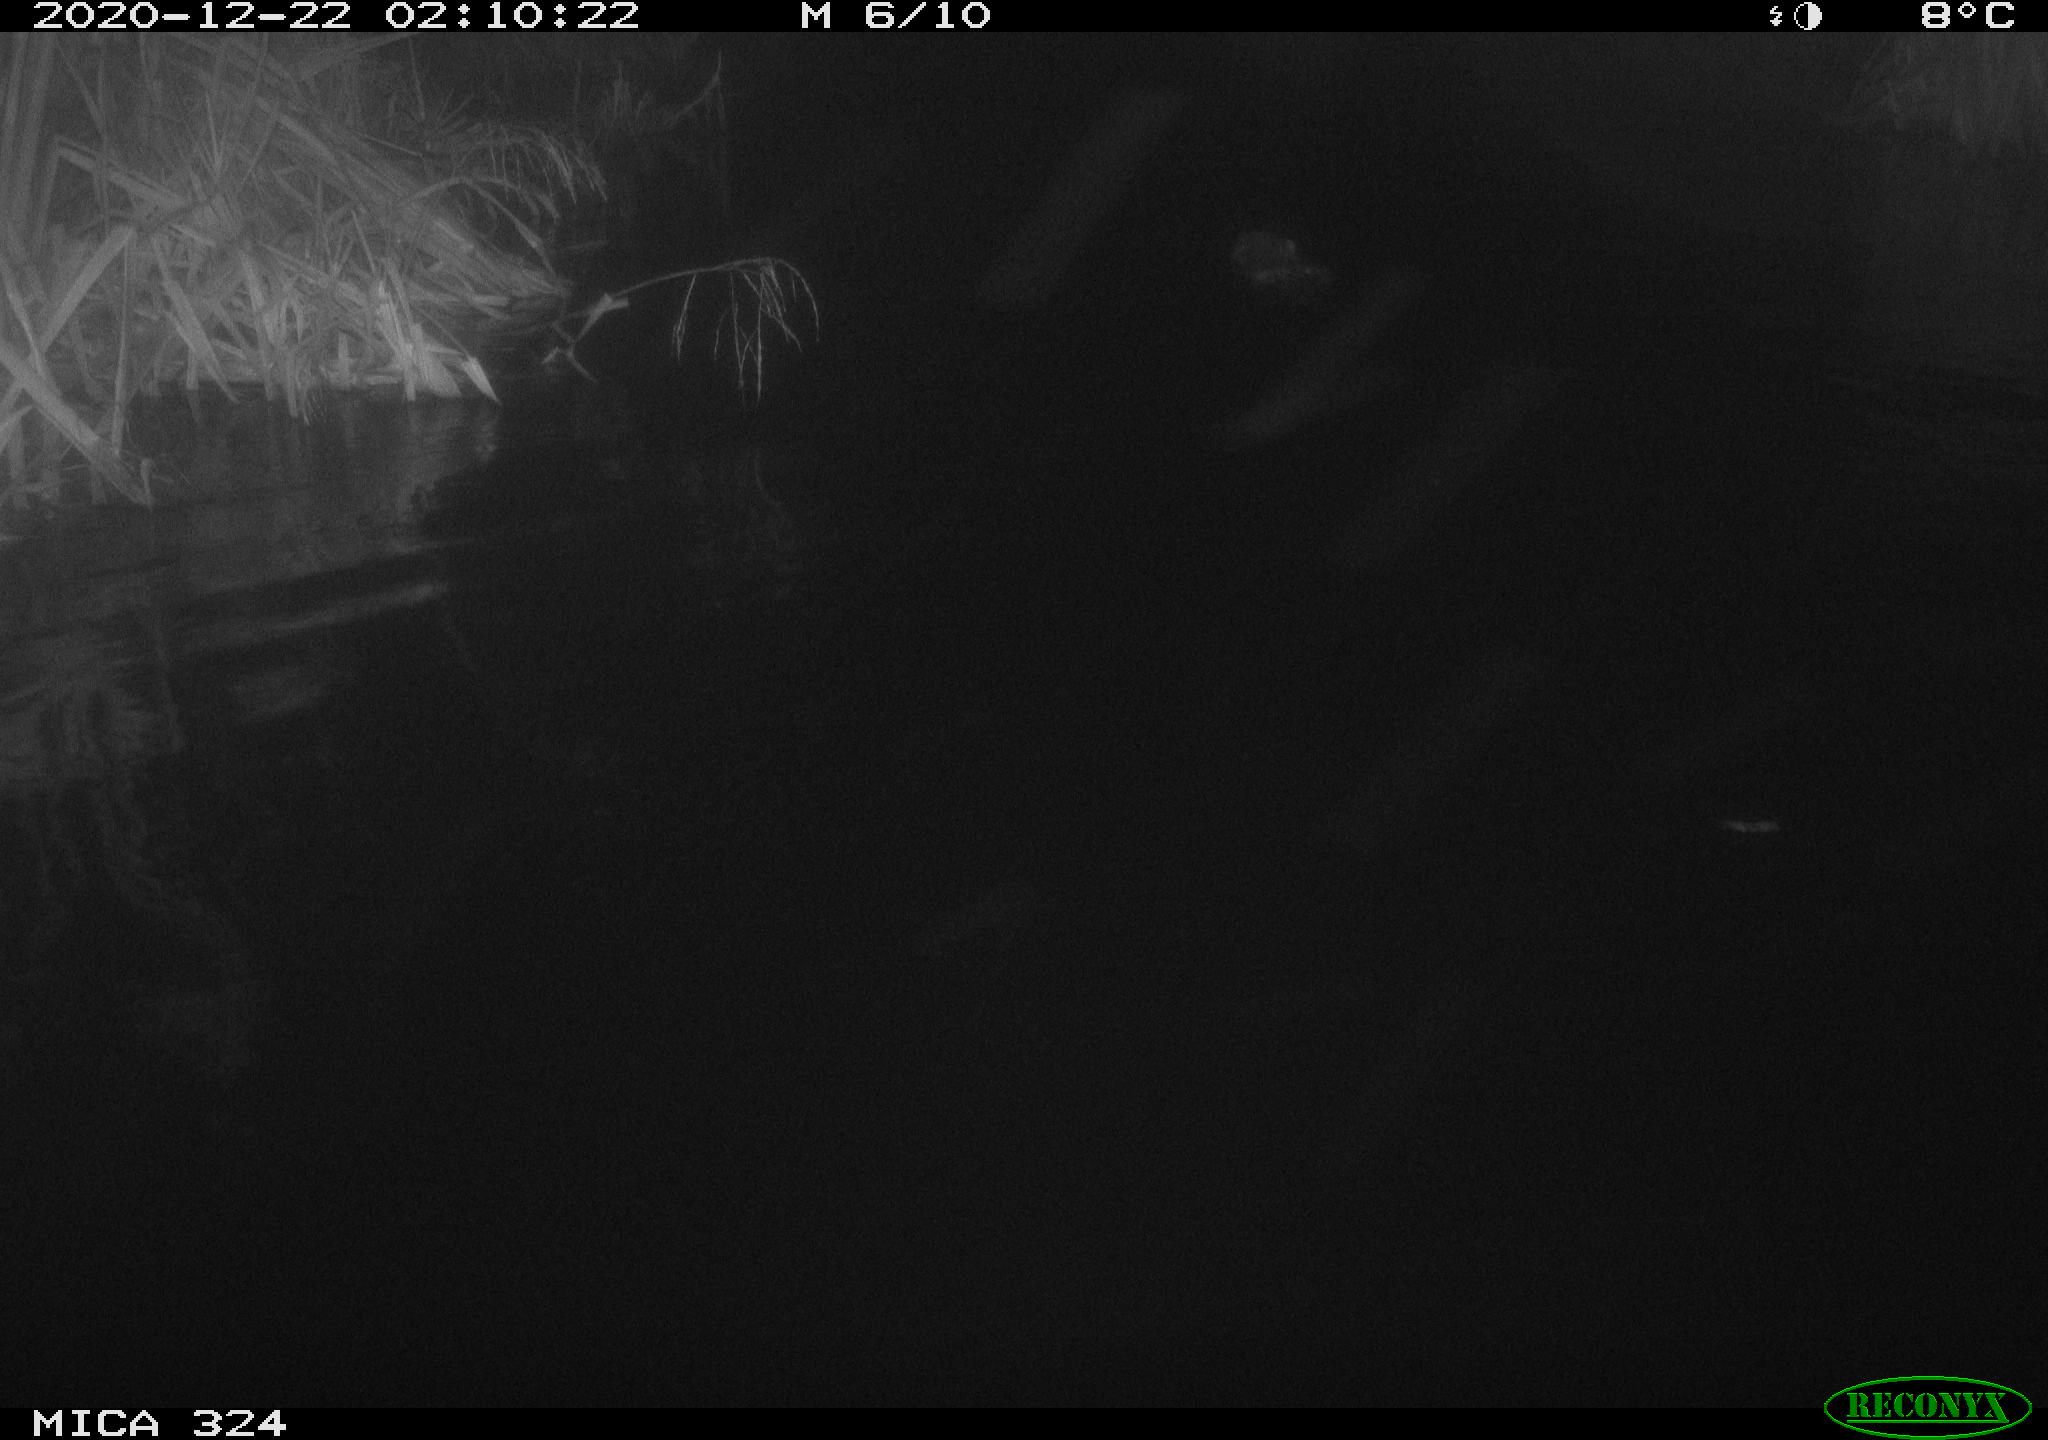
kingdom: Animalia
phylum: Chordata
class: Mammalia
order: Rodentia
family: Castoridae
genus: Castor
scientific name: Castor fiber
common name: Eurasian beaver
